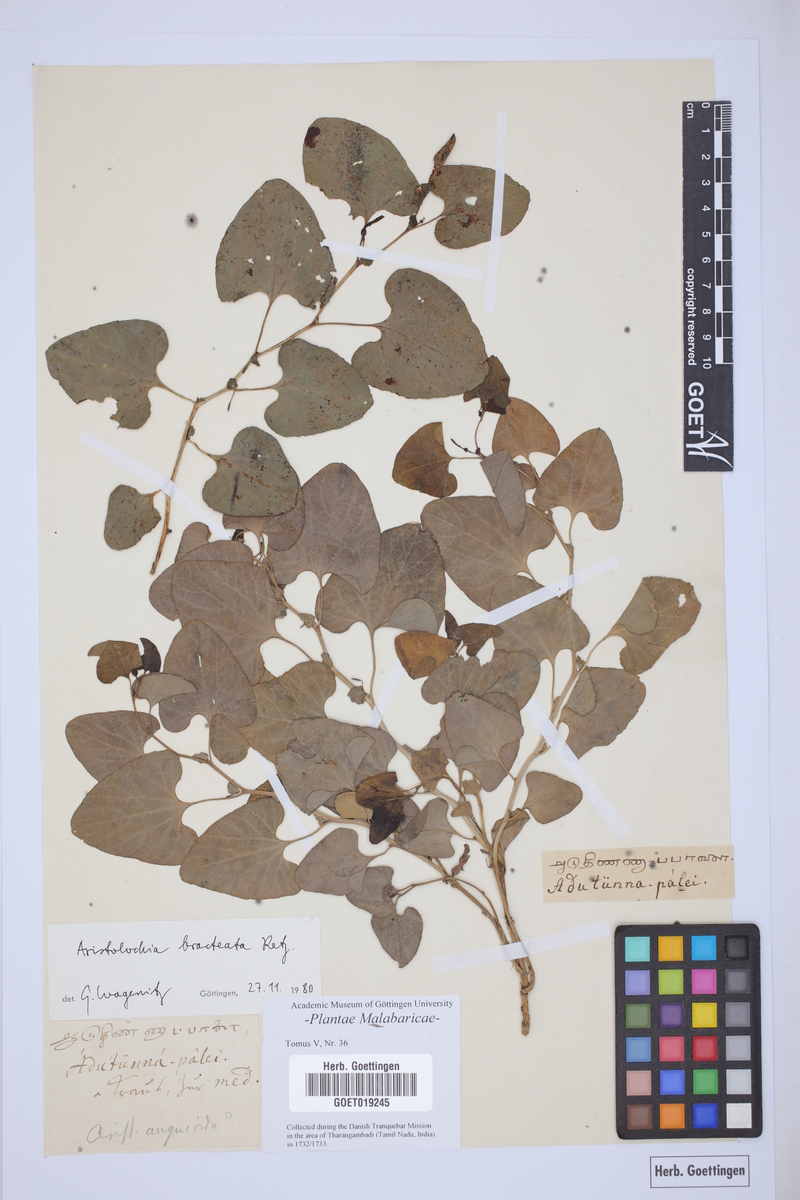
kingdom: Plantae
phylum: Tracheophyta
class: Magnoliopsida
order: Piperales
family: Aristolochiaceae
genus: Aristolochia
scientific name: Aristolochia bracteolata
